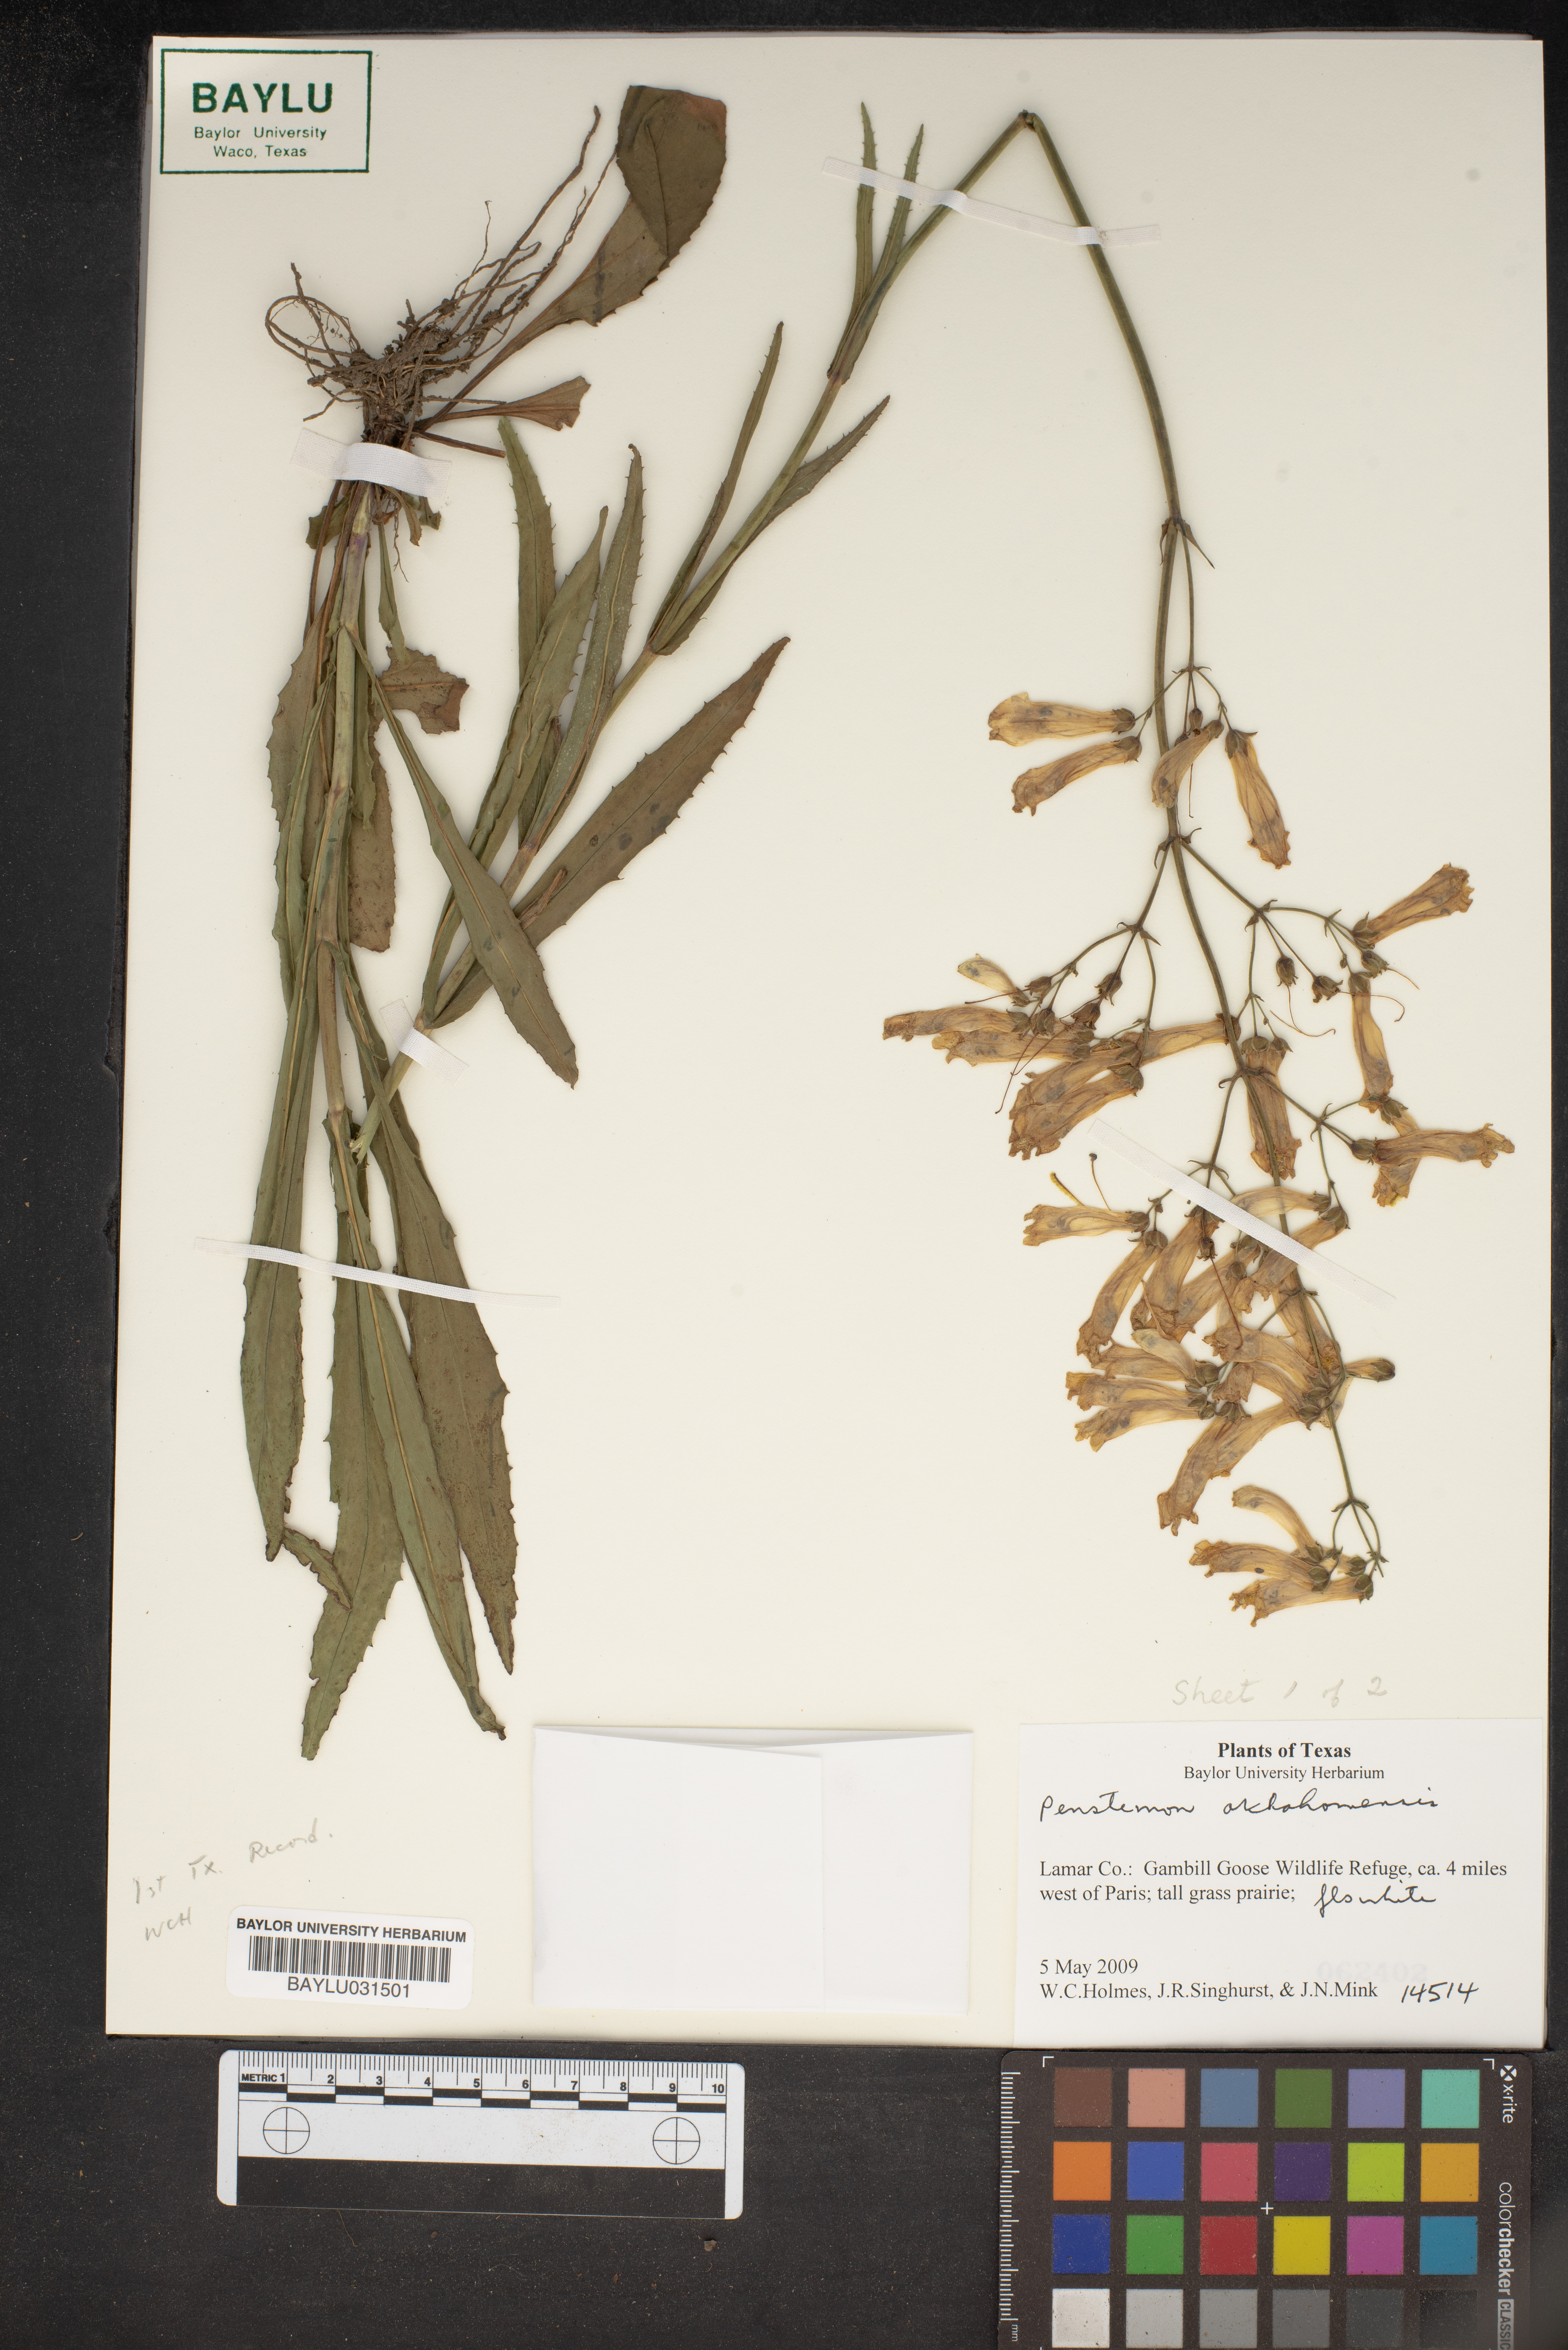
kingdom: Plantae
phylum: Tracheophyta
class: Magnoliopsida
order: Lamiales
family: Plantaginaceae
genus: Penstemon
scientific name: Penstemon
